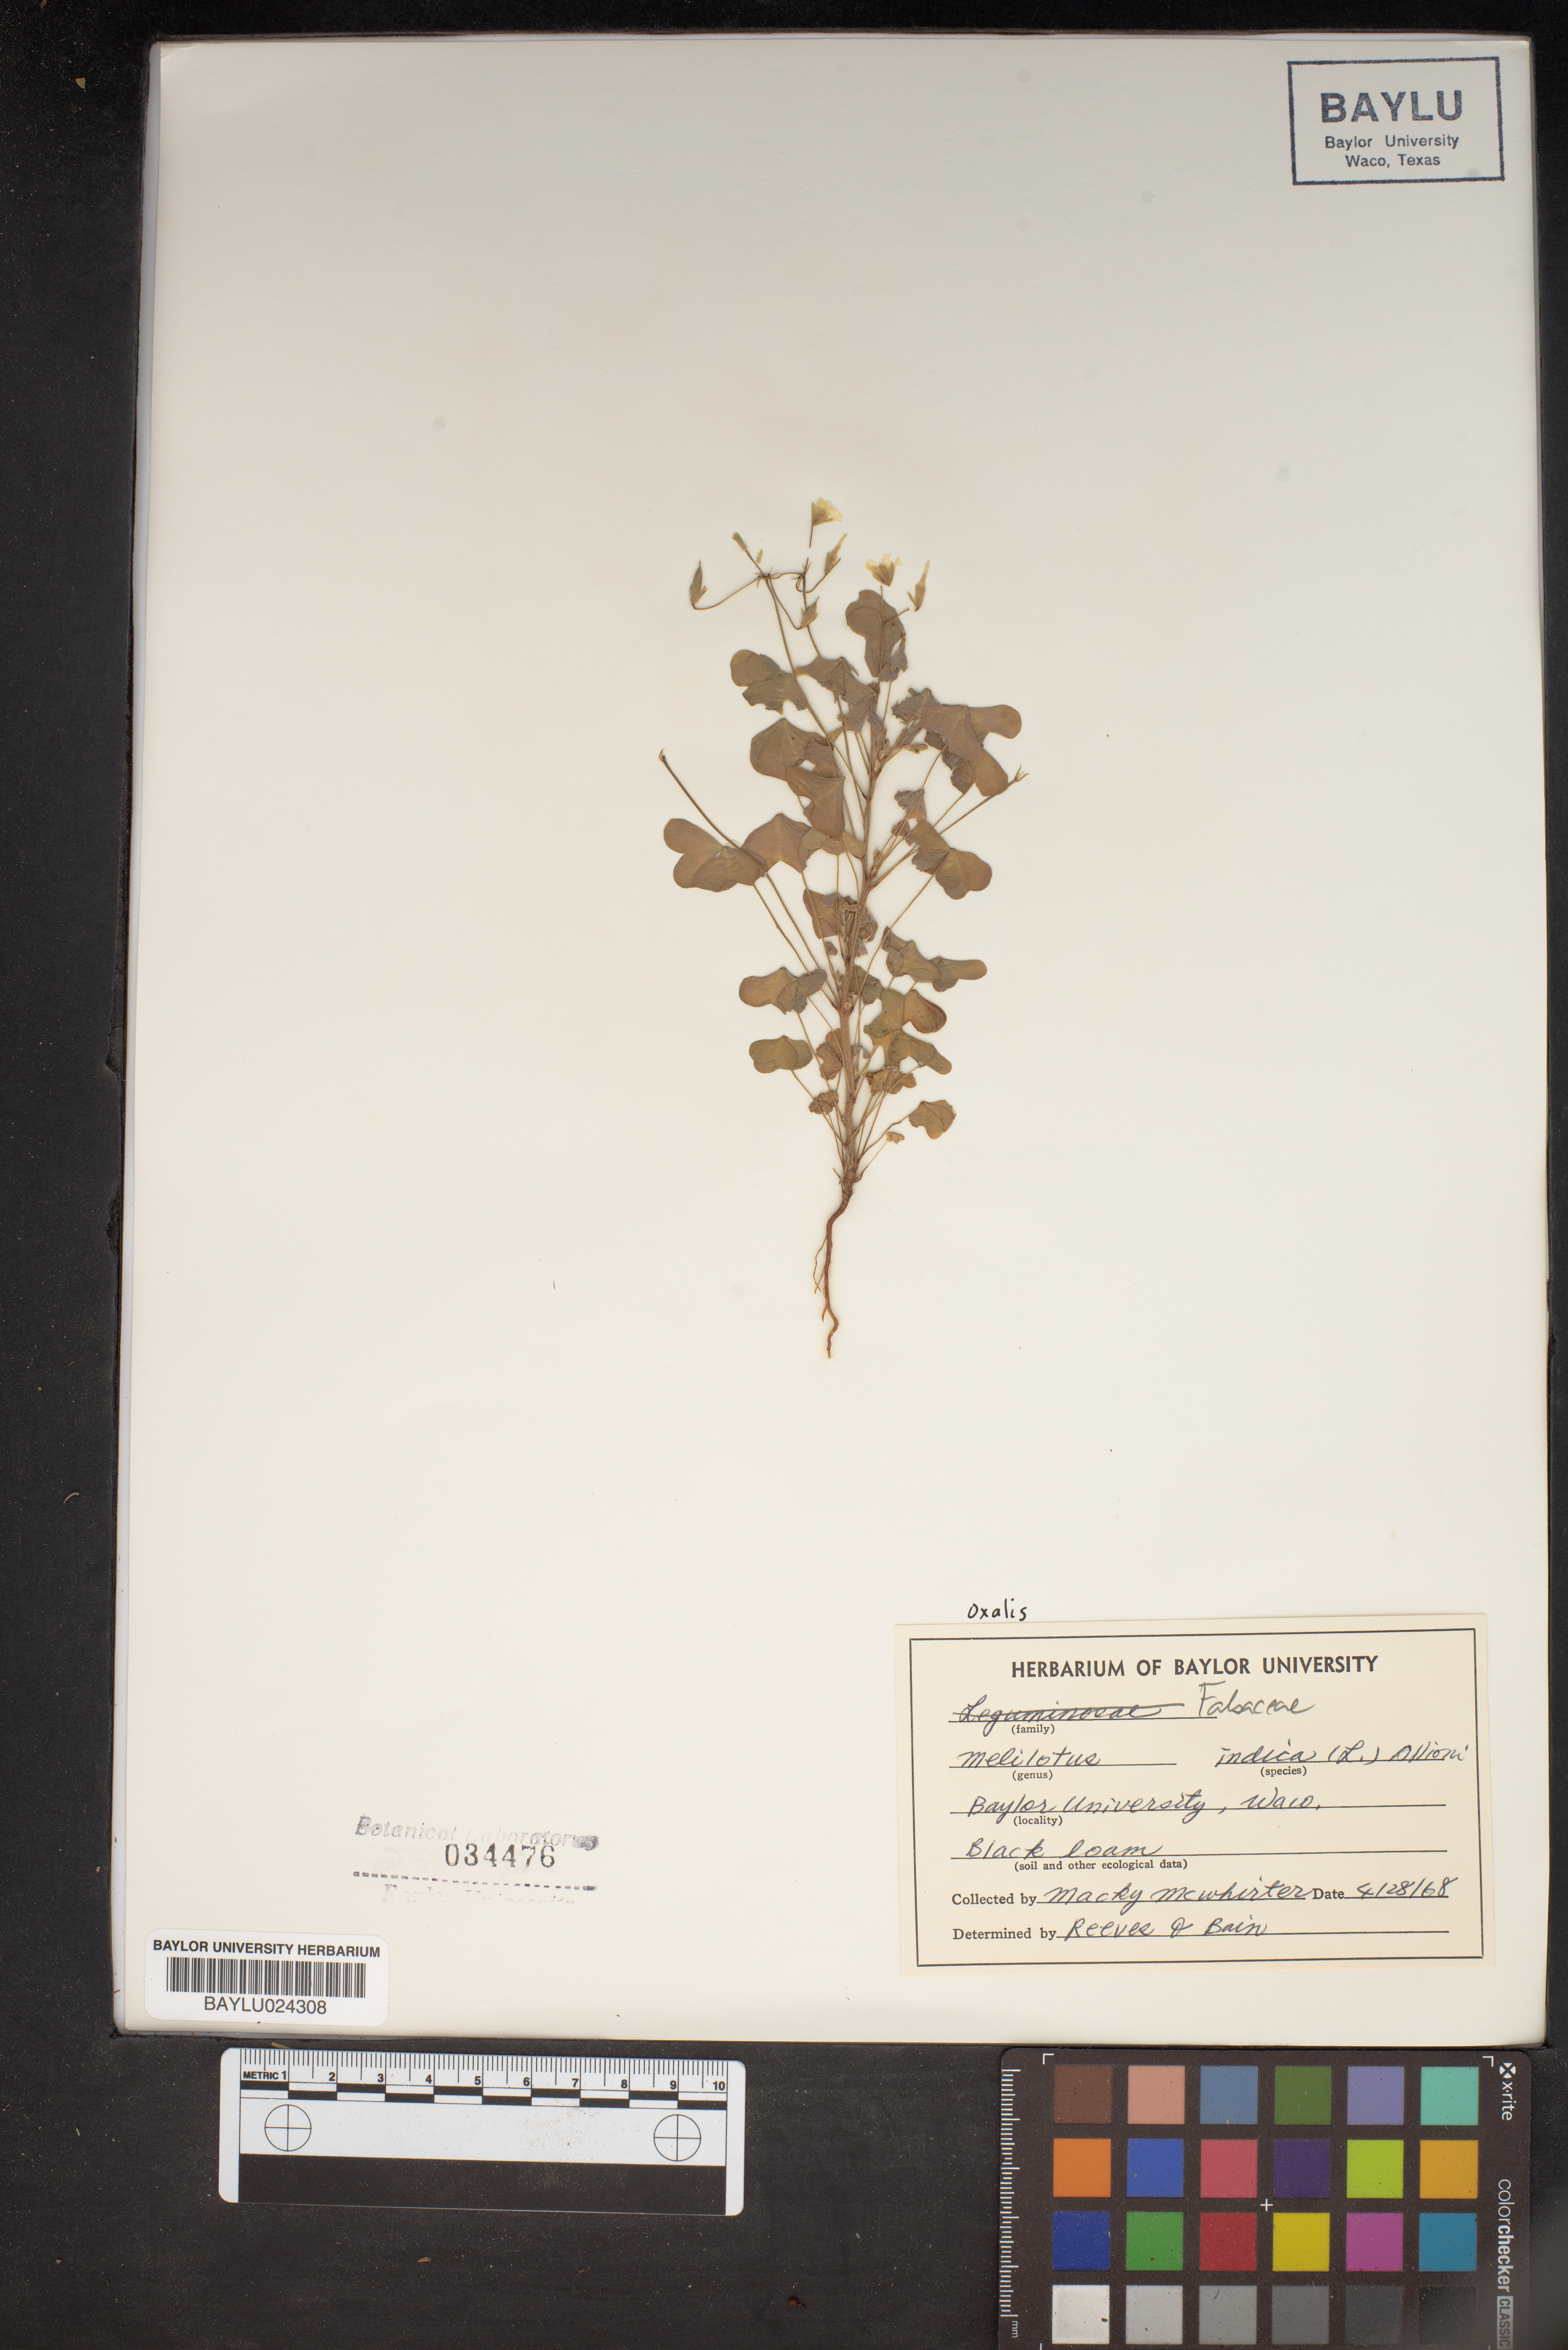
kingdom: Plantae
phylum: Tracheophyta
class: Magnoliopsida
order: Fabales
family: Fabaceae
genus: Melilotus
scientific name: Melilotus indicus
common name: Small melilot
